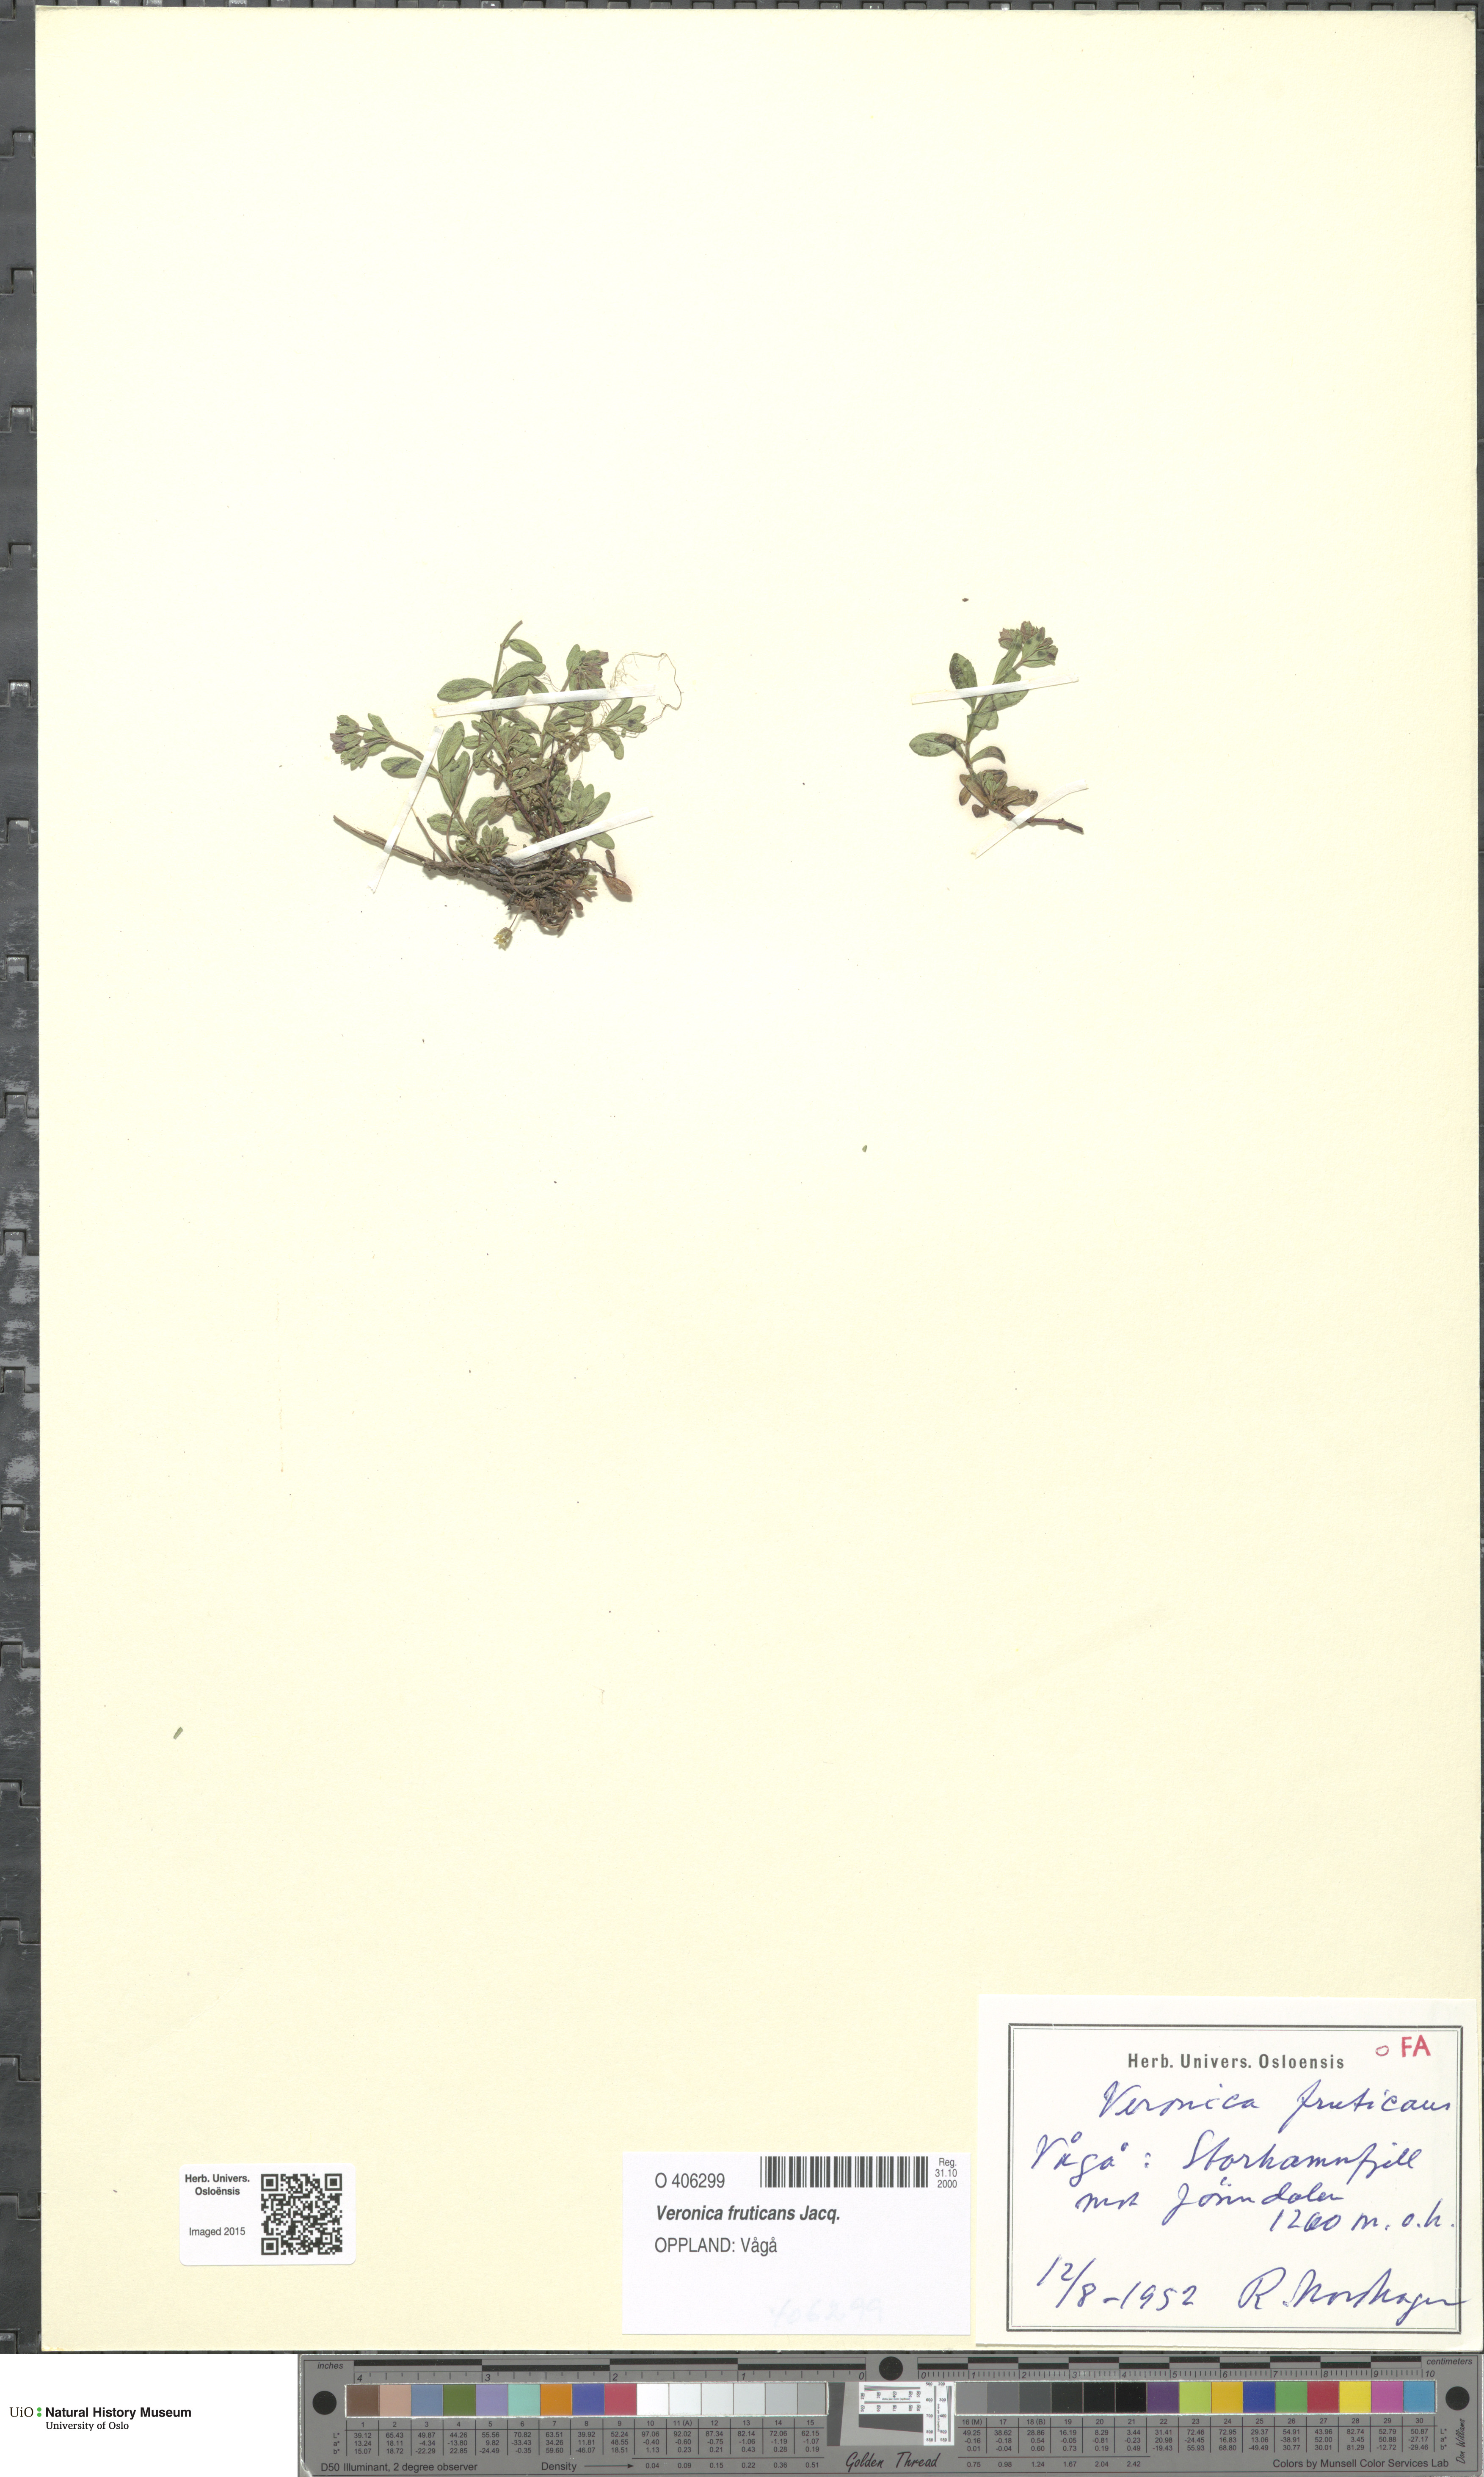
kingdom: Plantae
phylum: Tracheophyta
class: Magnoliopsida
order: Lamiales
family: Plantaginaceae
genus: Veronica
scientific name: Veronica fruticans
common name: Rock speedwell
